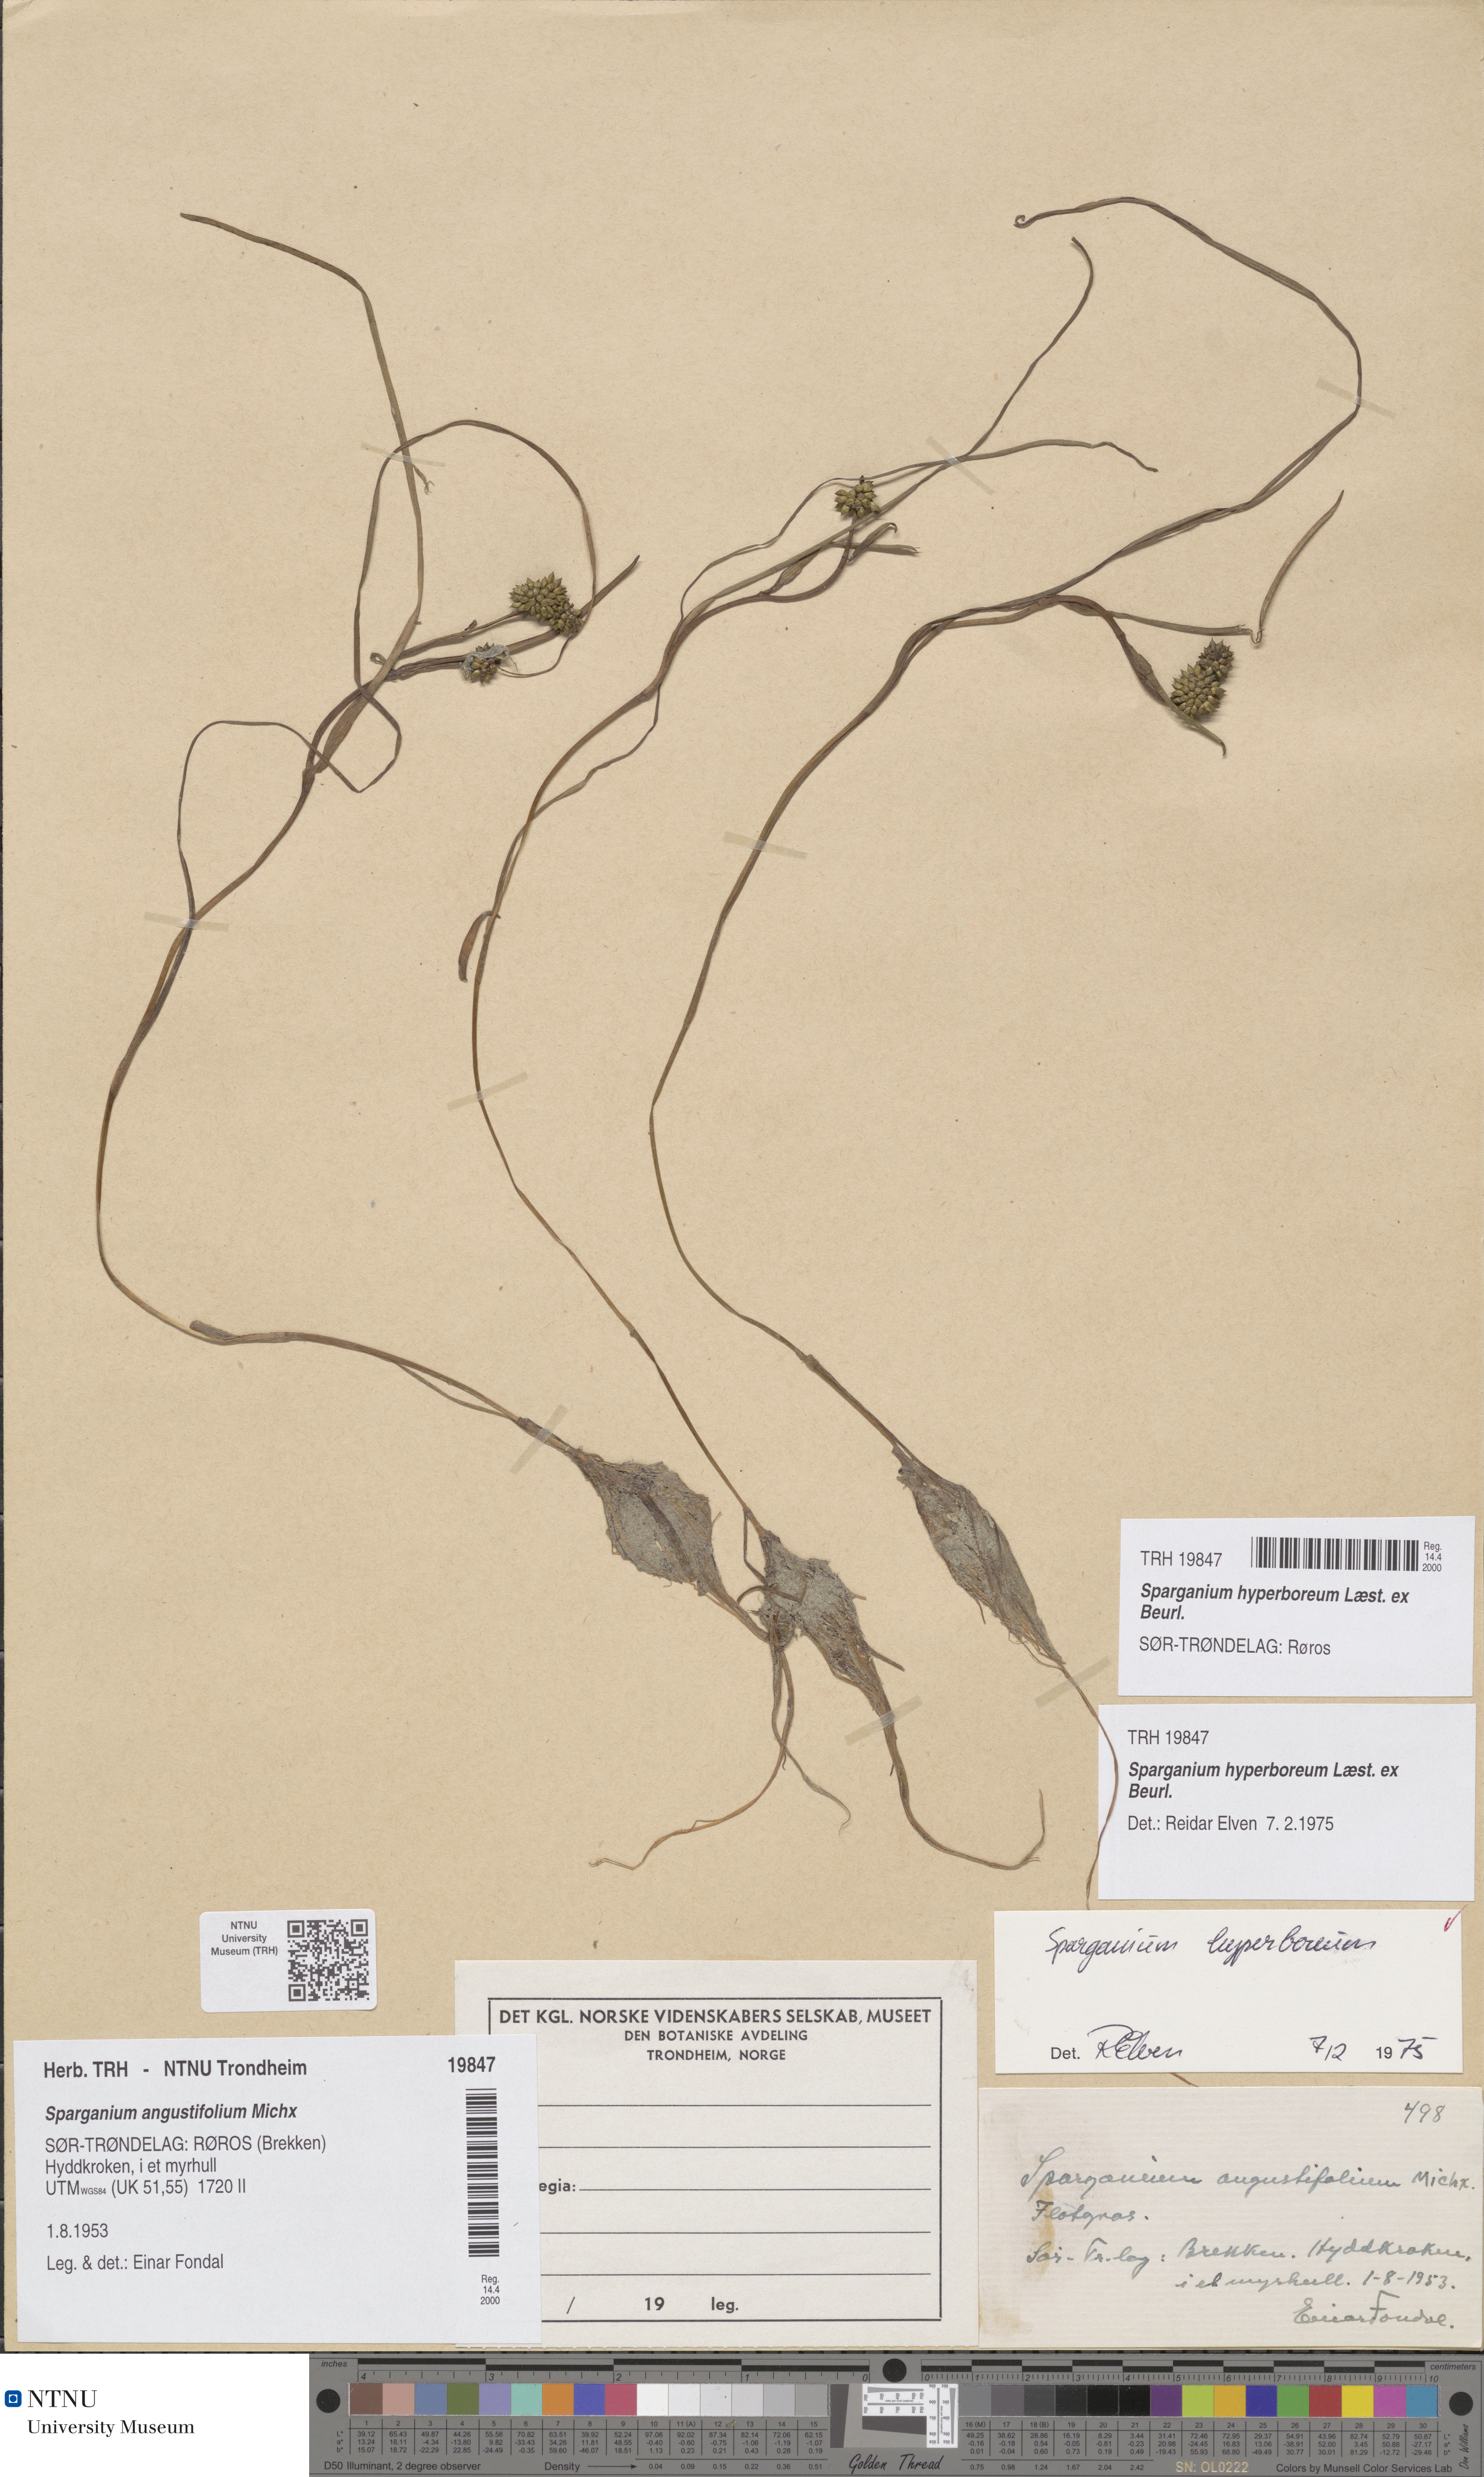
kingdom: Plantae
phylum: Tracheophyta
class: Liliopsida
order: Poales
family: Typhaceae
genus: Sparganium
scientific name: Sparganium hyperboreum
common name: Arctic burreed
